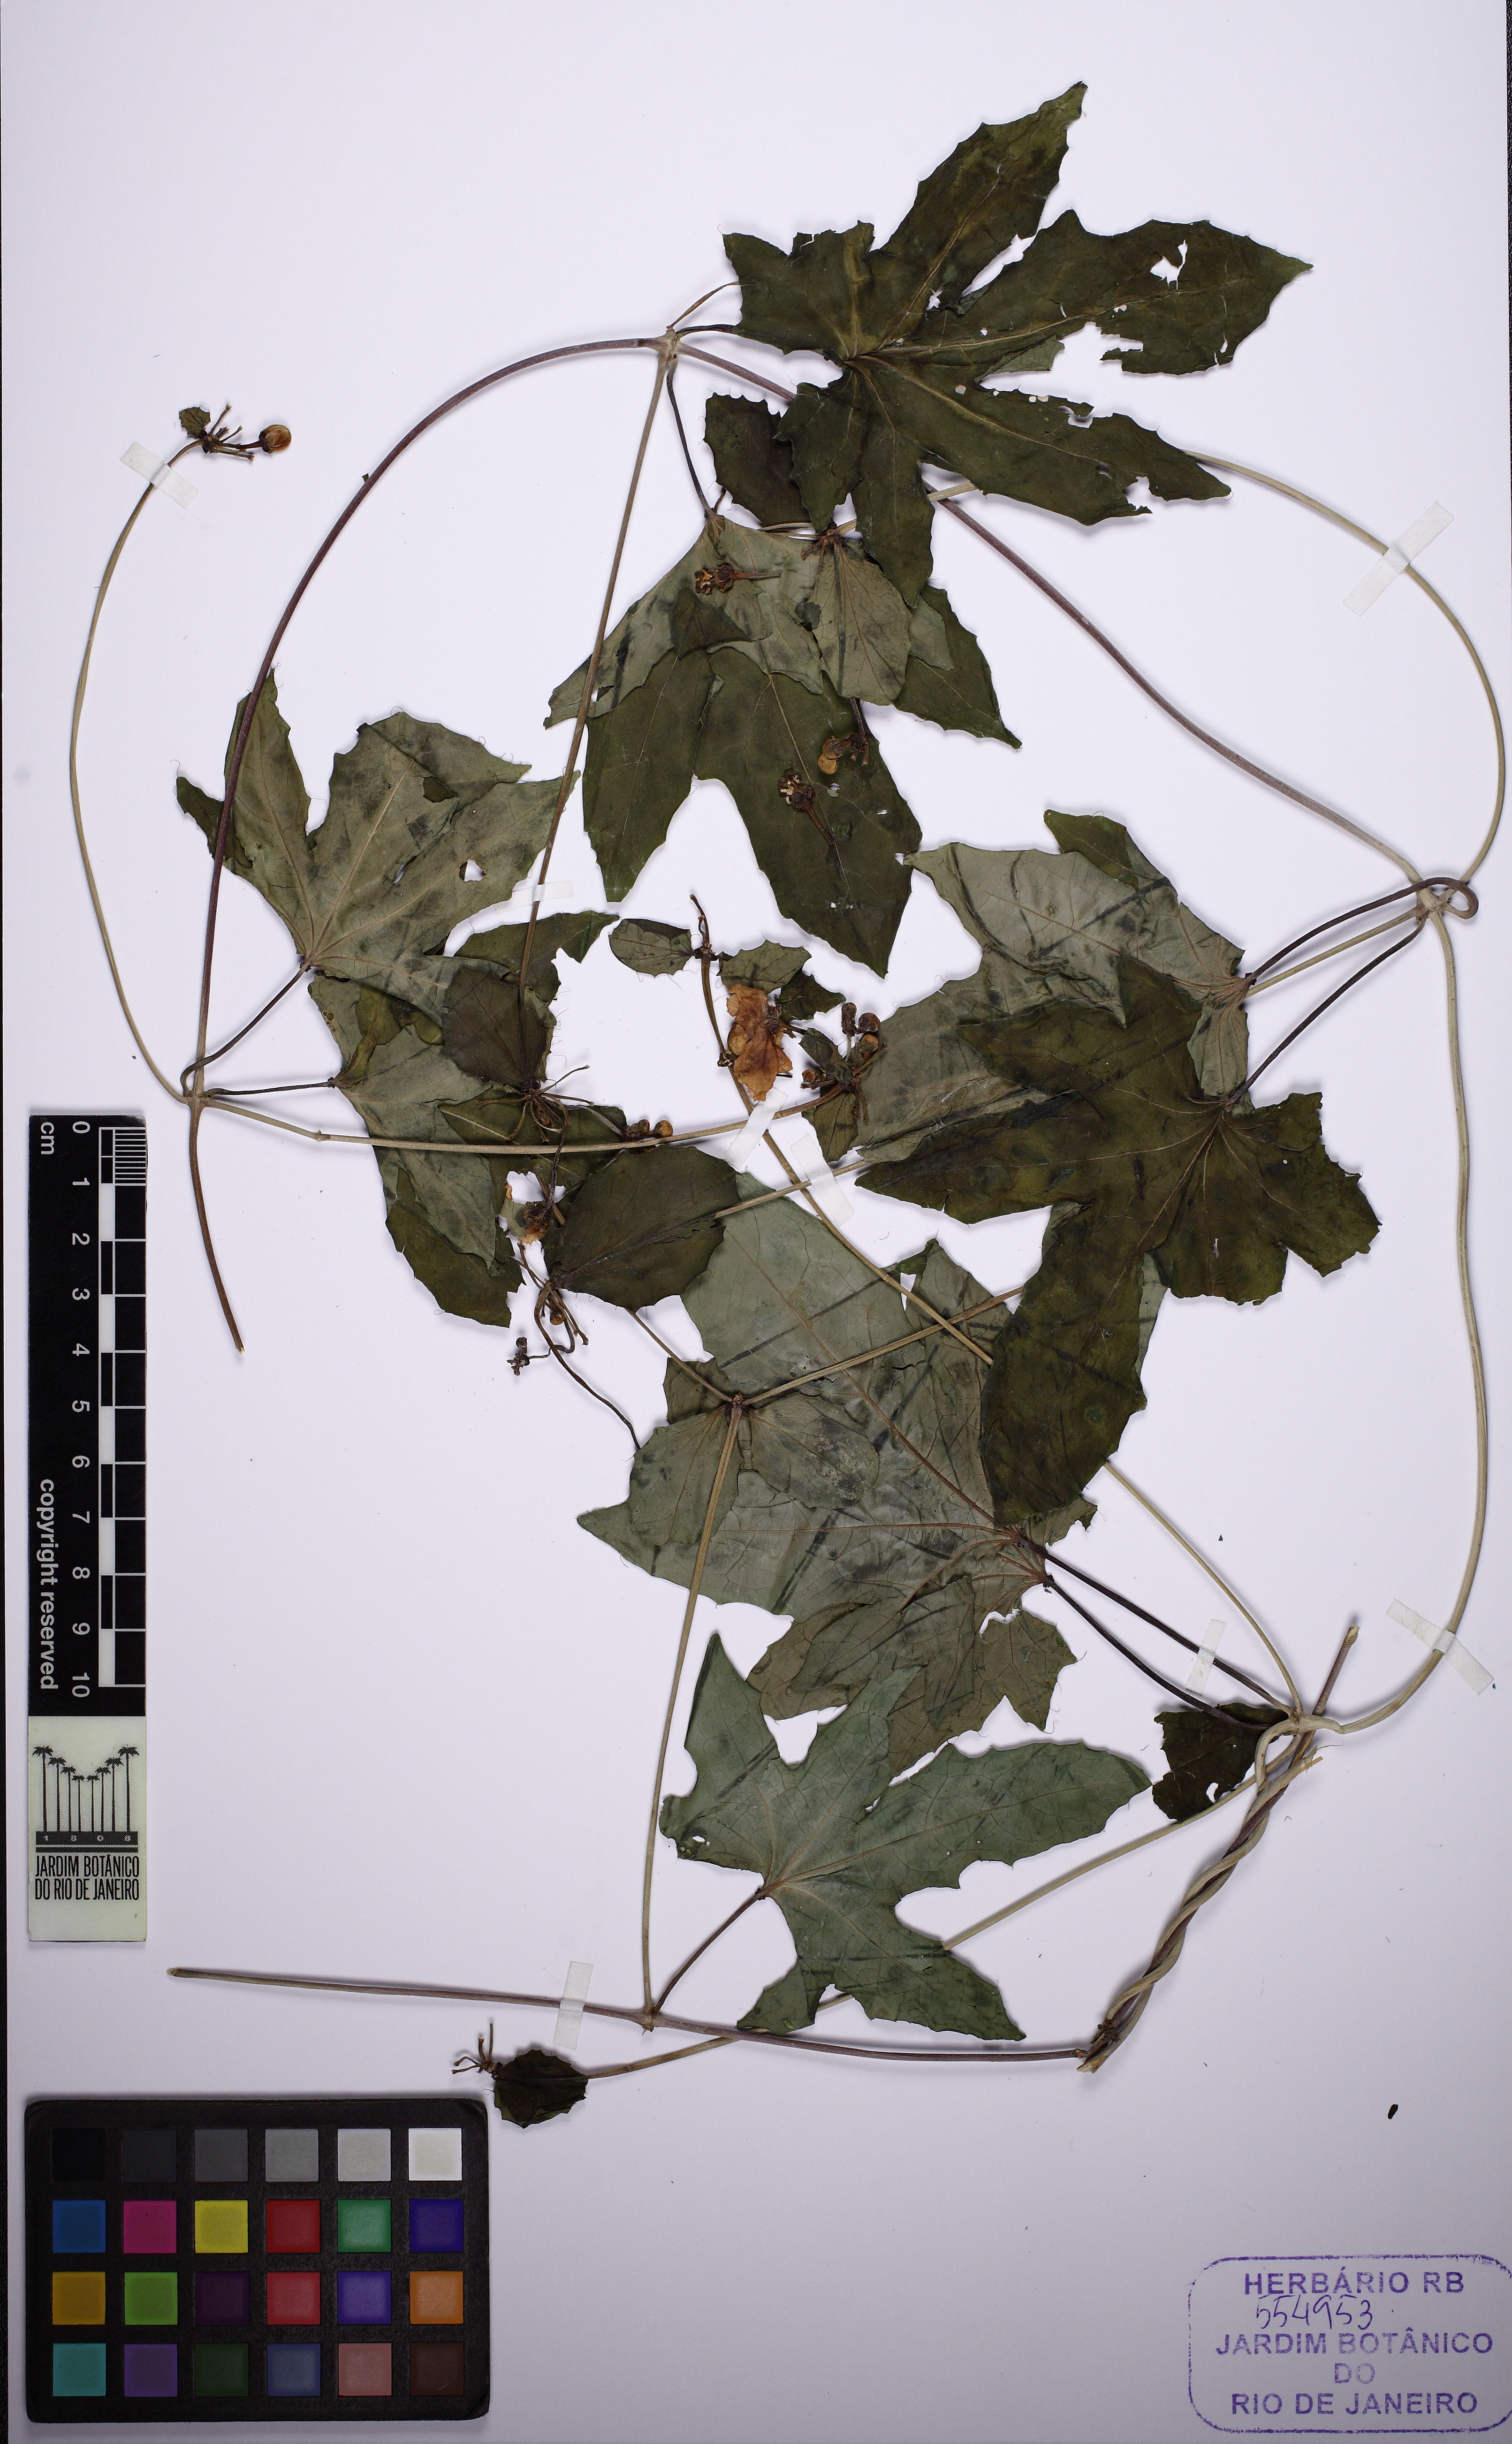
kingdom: Plantae
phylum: Tracheophyta
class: Magnoliopsida
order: Malpighiales
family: Malpighiaceae
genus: Stigmaphyllon
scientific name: Stigmaphyllon jatrophifolium
